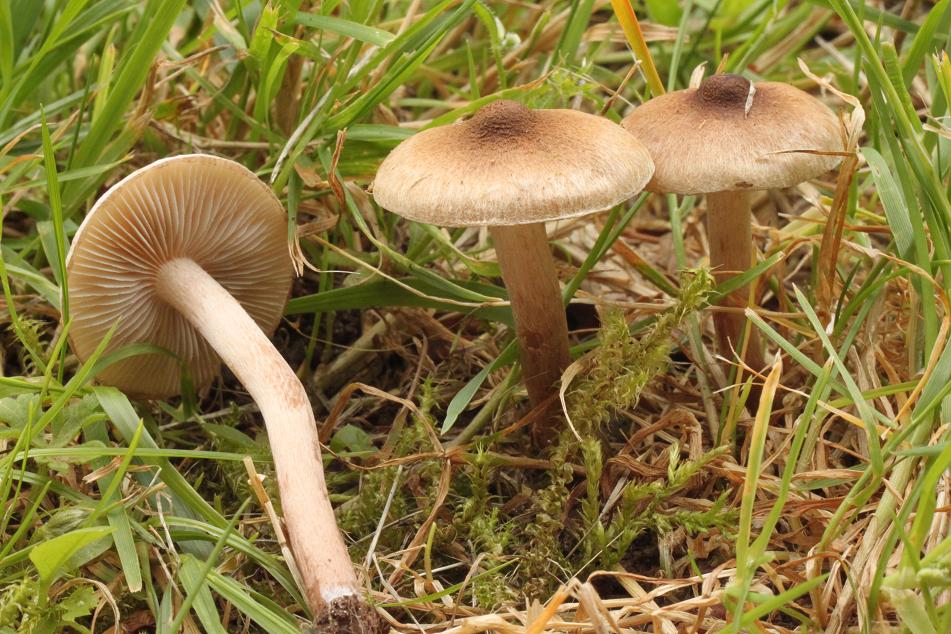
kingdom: Fungi
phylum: Basidiomycota
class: Agaricomycetes
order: Agaricales
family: Inocybaceae
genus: Inocybe
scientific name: Inocybe curvipes
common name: plæne-trævlhat
